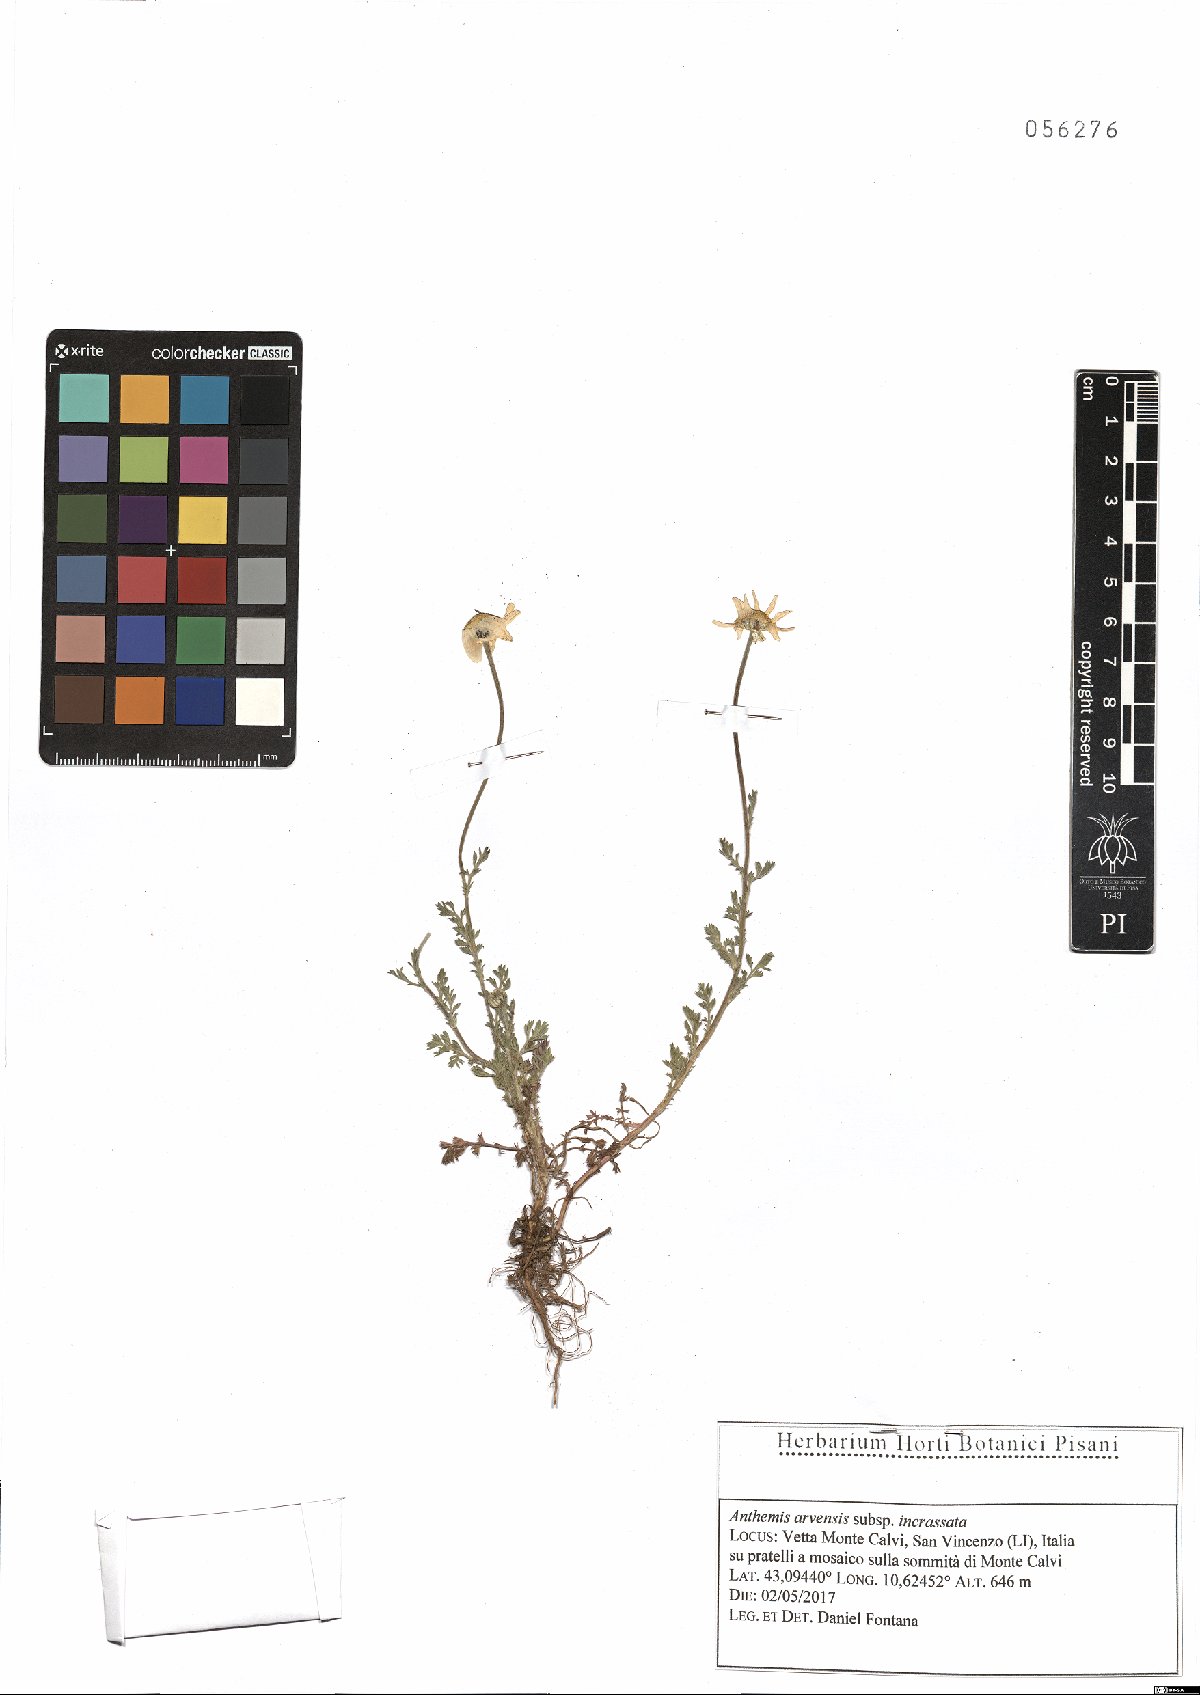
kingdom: Plantae
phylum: Tracheophyta
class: Magnoliopsida
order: Asterales
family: Asteraceae
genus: Anthemis
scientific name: Anthemis arvensis
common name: Corn chamomile
